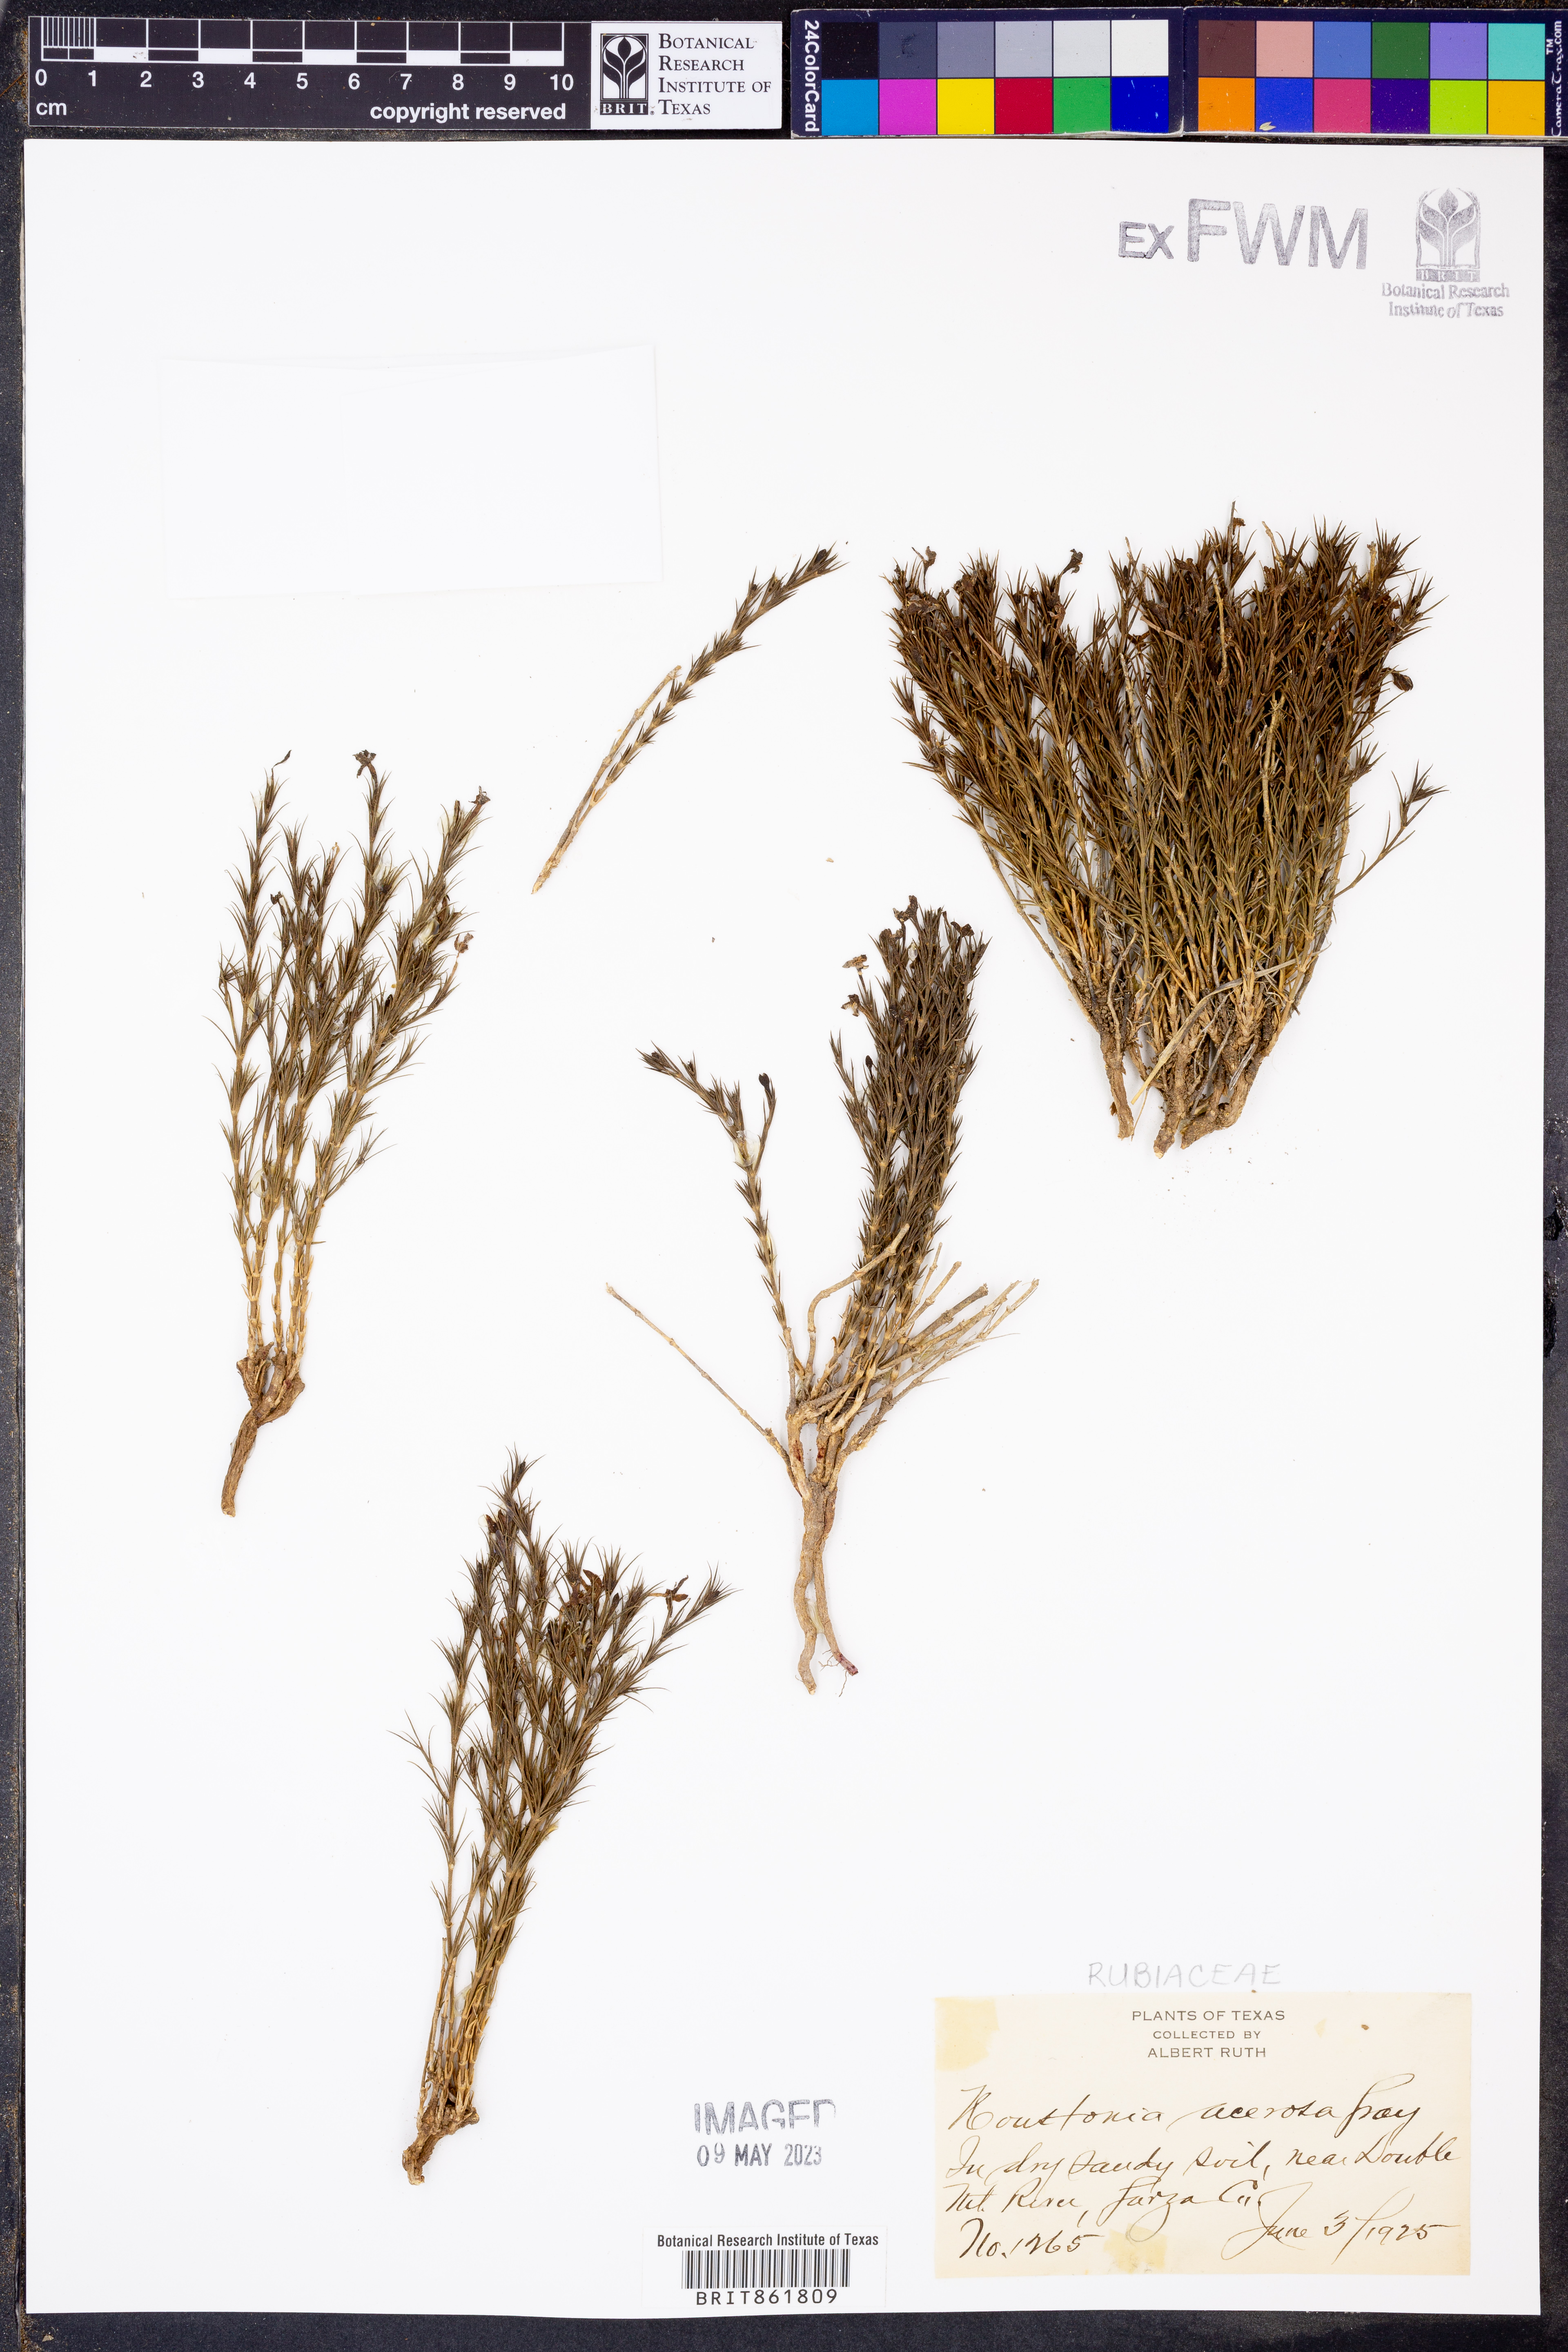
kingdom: Plantae
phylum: Tracheophyta
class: Magnoliopsida
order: Gentianales
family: Rubiaceae
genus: Houstonia
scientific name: Houstonia acerosa
